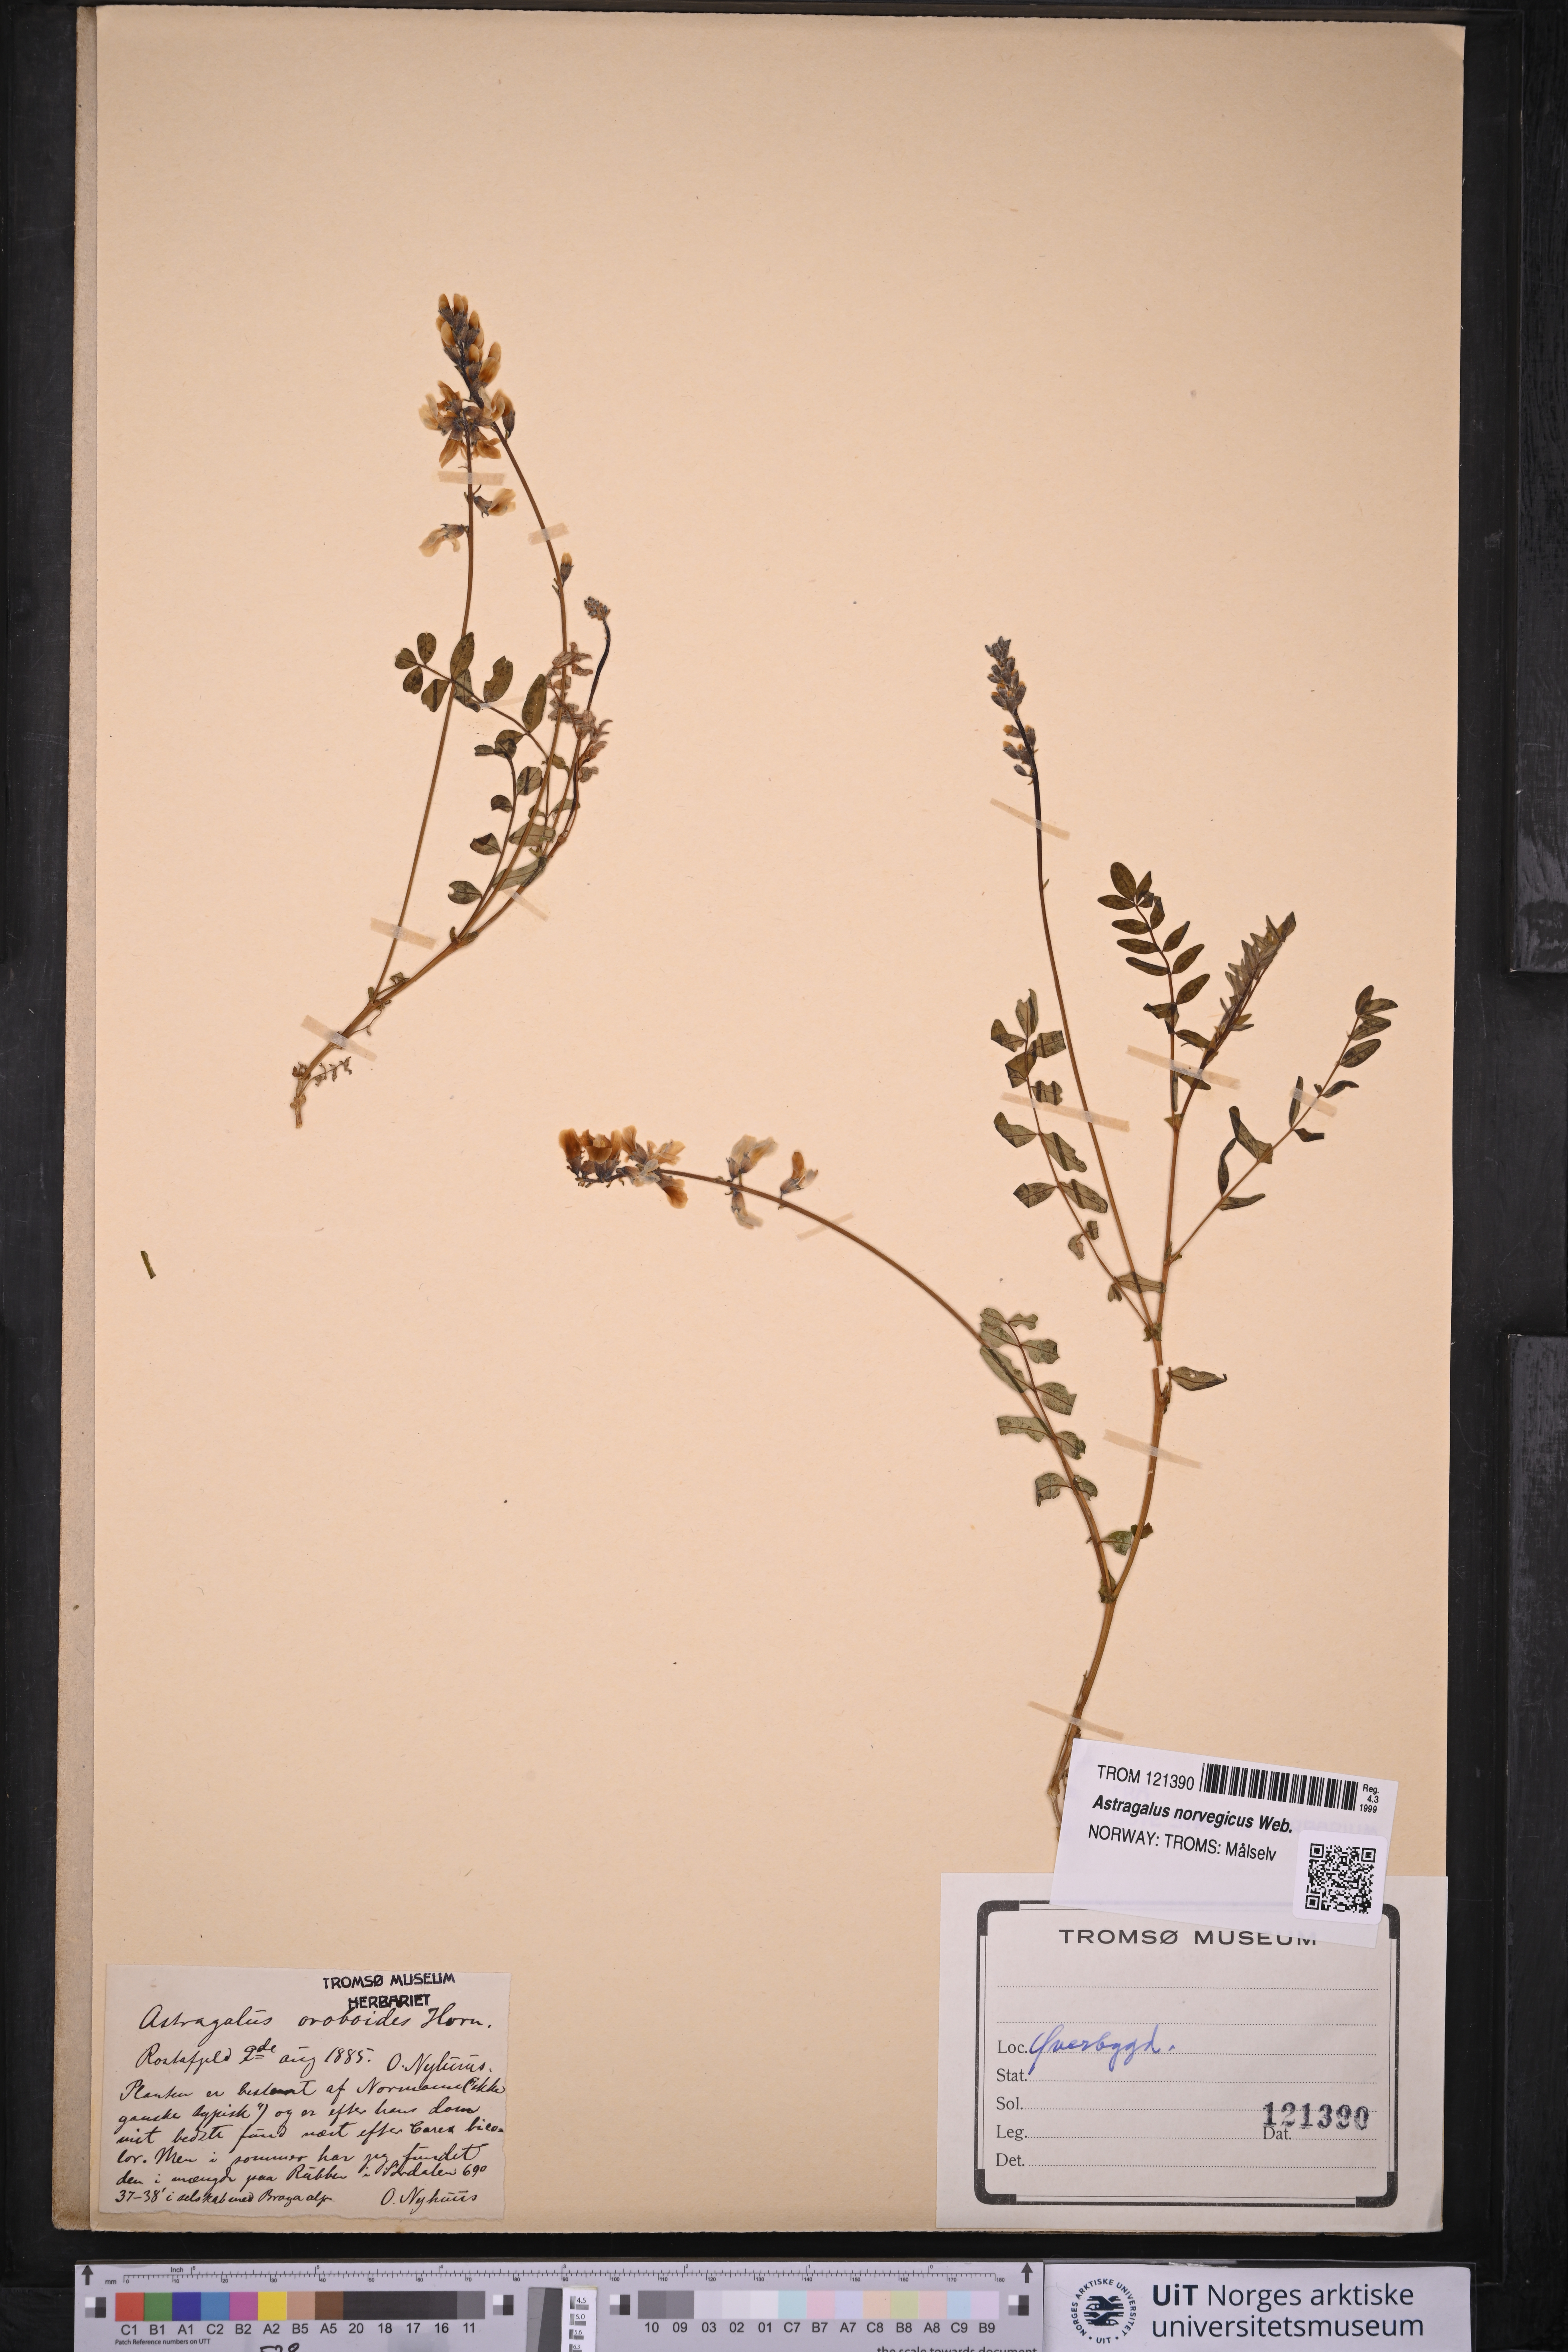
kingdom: Plantae
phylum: Tracheophyta
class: Magnoliopsida
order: Fabales
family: Fabaceae
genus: Astragalus
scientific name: Astragalus norvegicus
